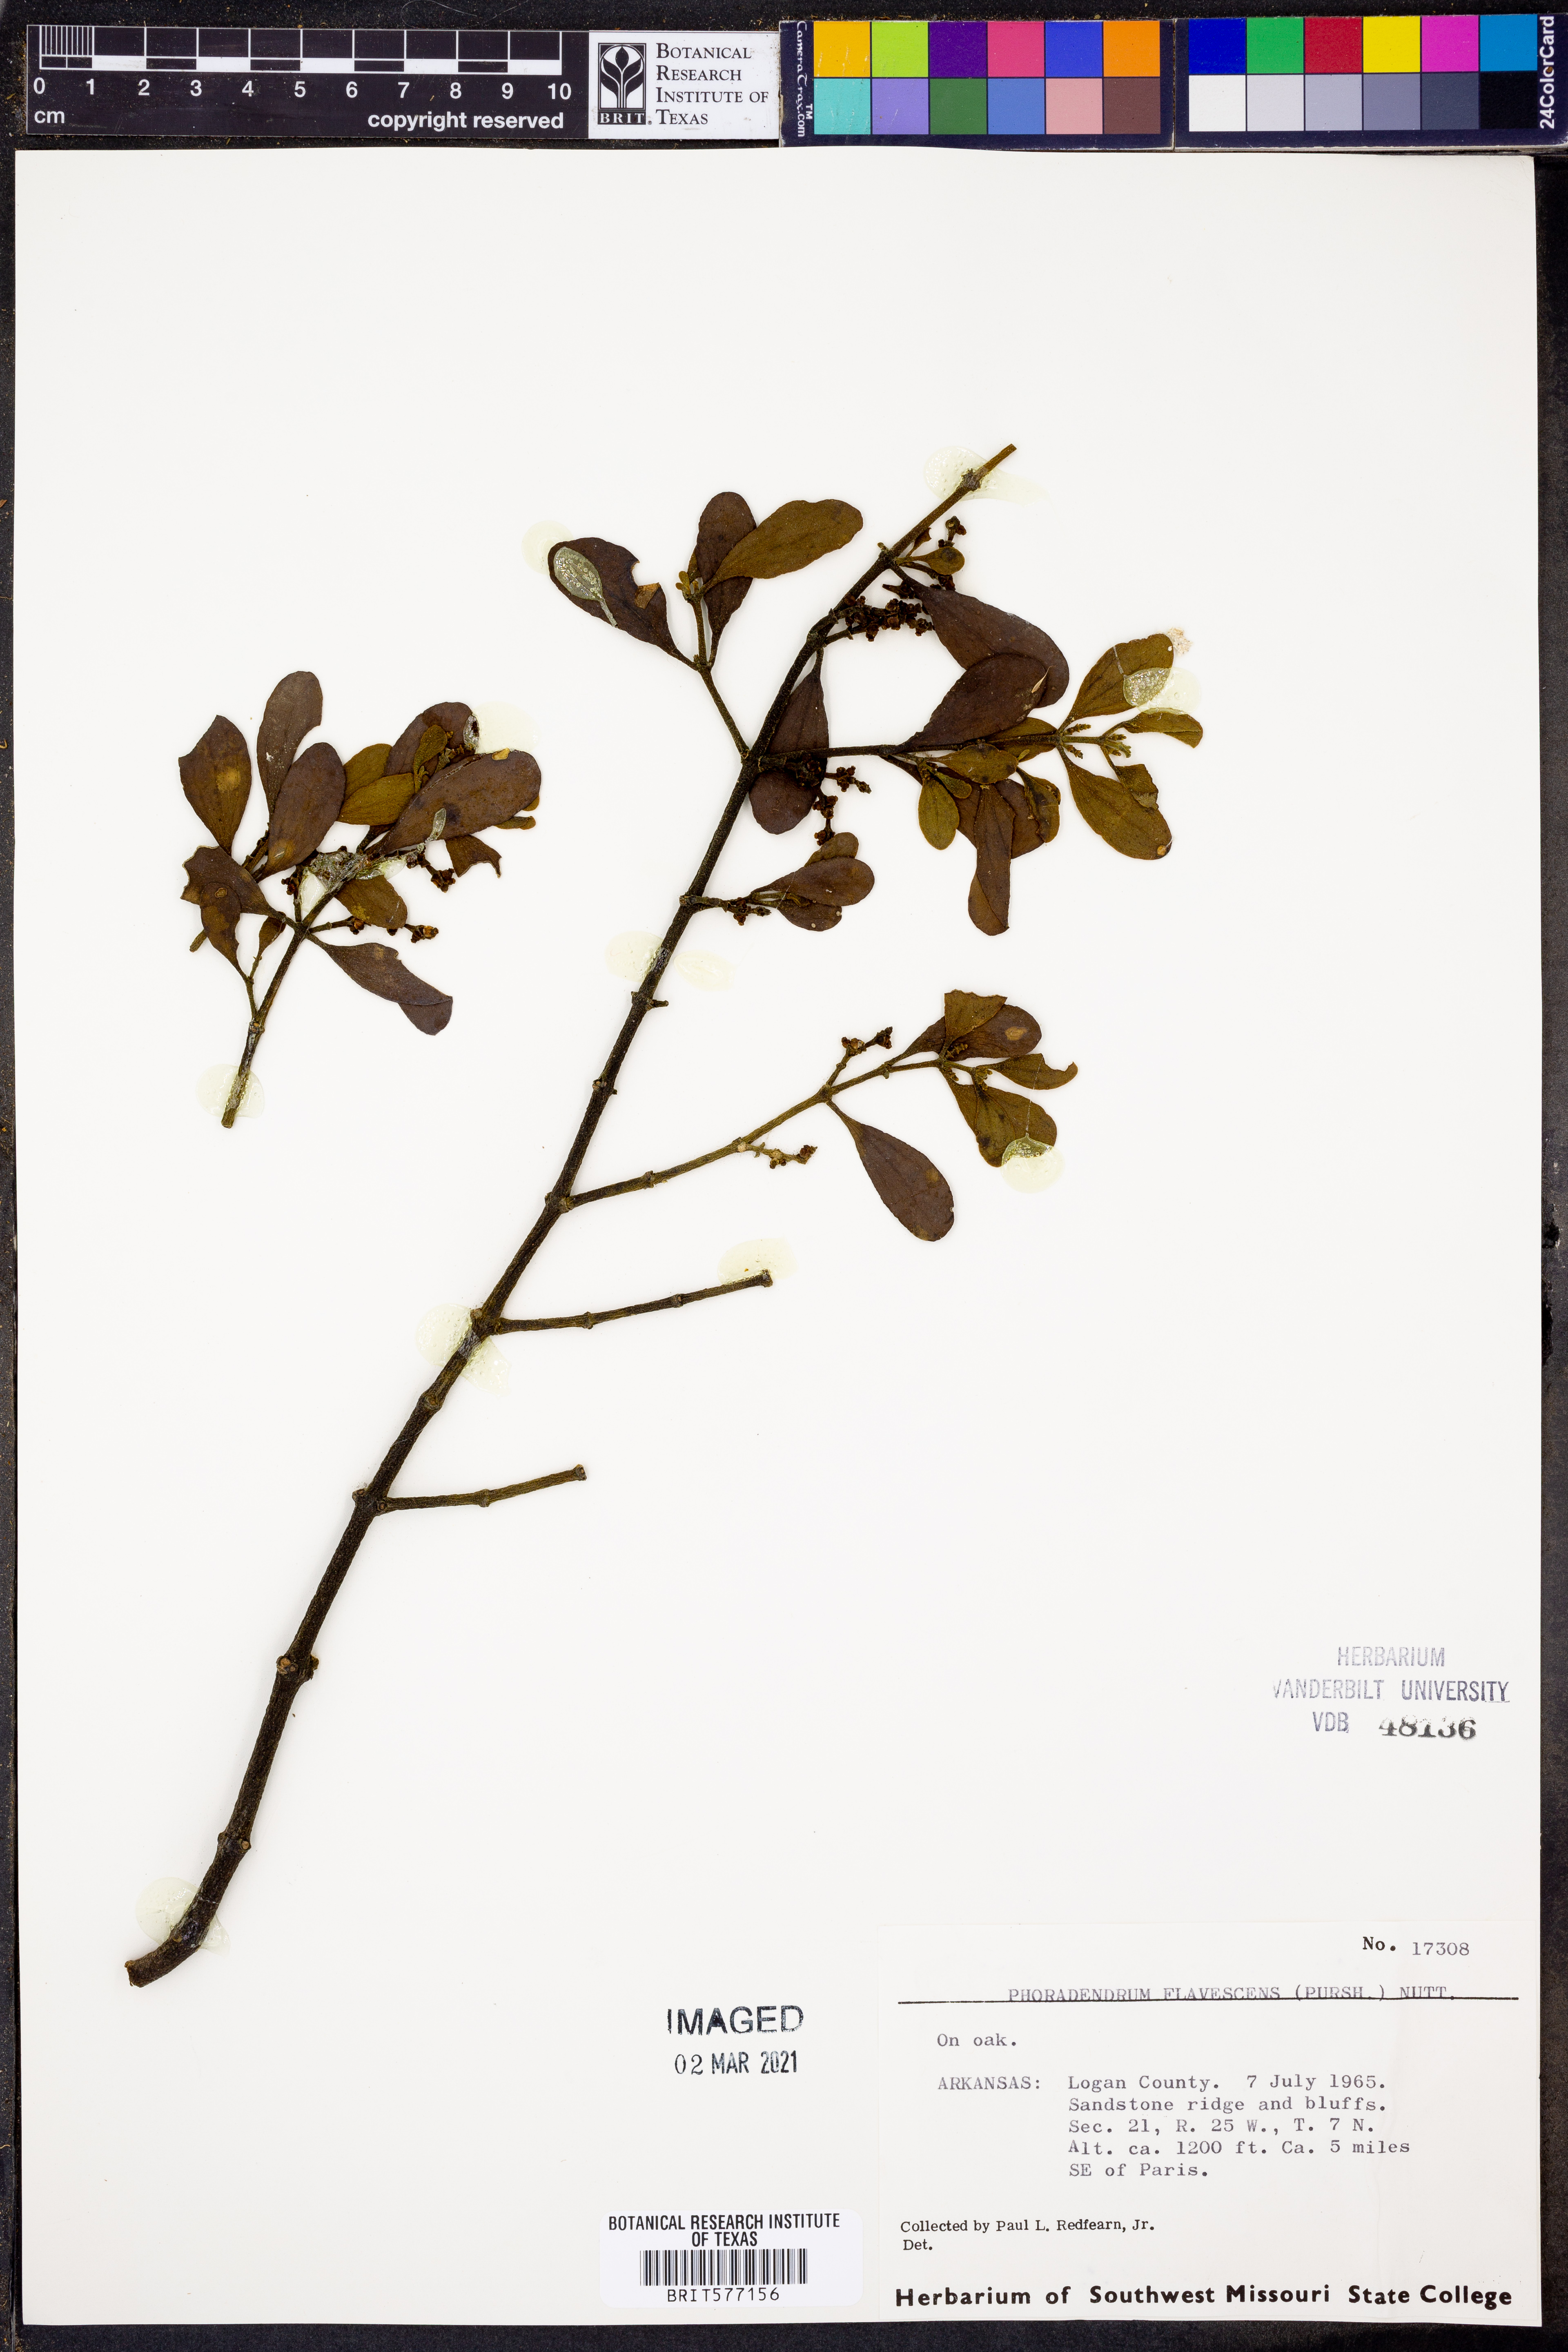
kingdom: Plantae
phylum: Tracheophyta
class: Magnoliopsida
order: Santalales
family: Viscaceae
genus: Phoradendron
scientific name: Phoradendron leucarpum
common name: Pacific mistletoe
